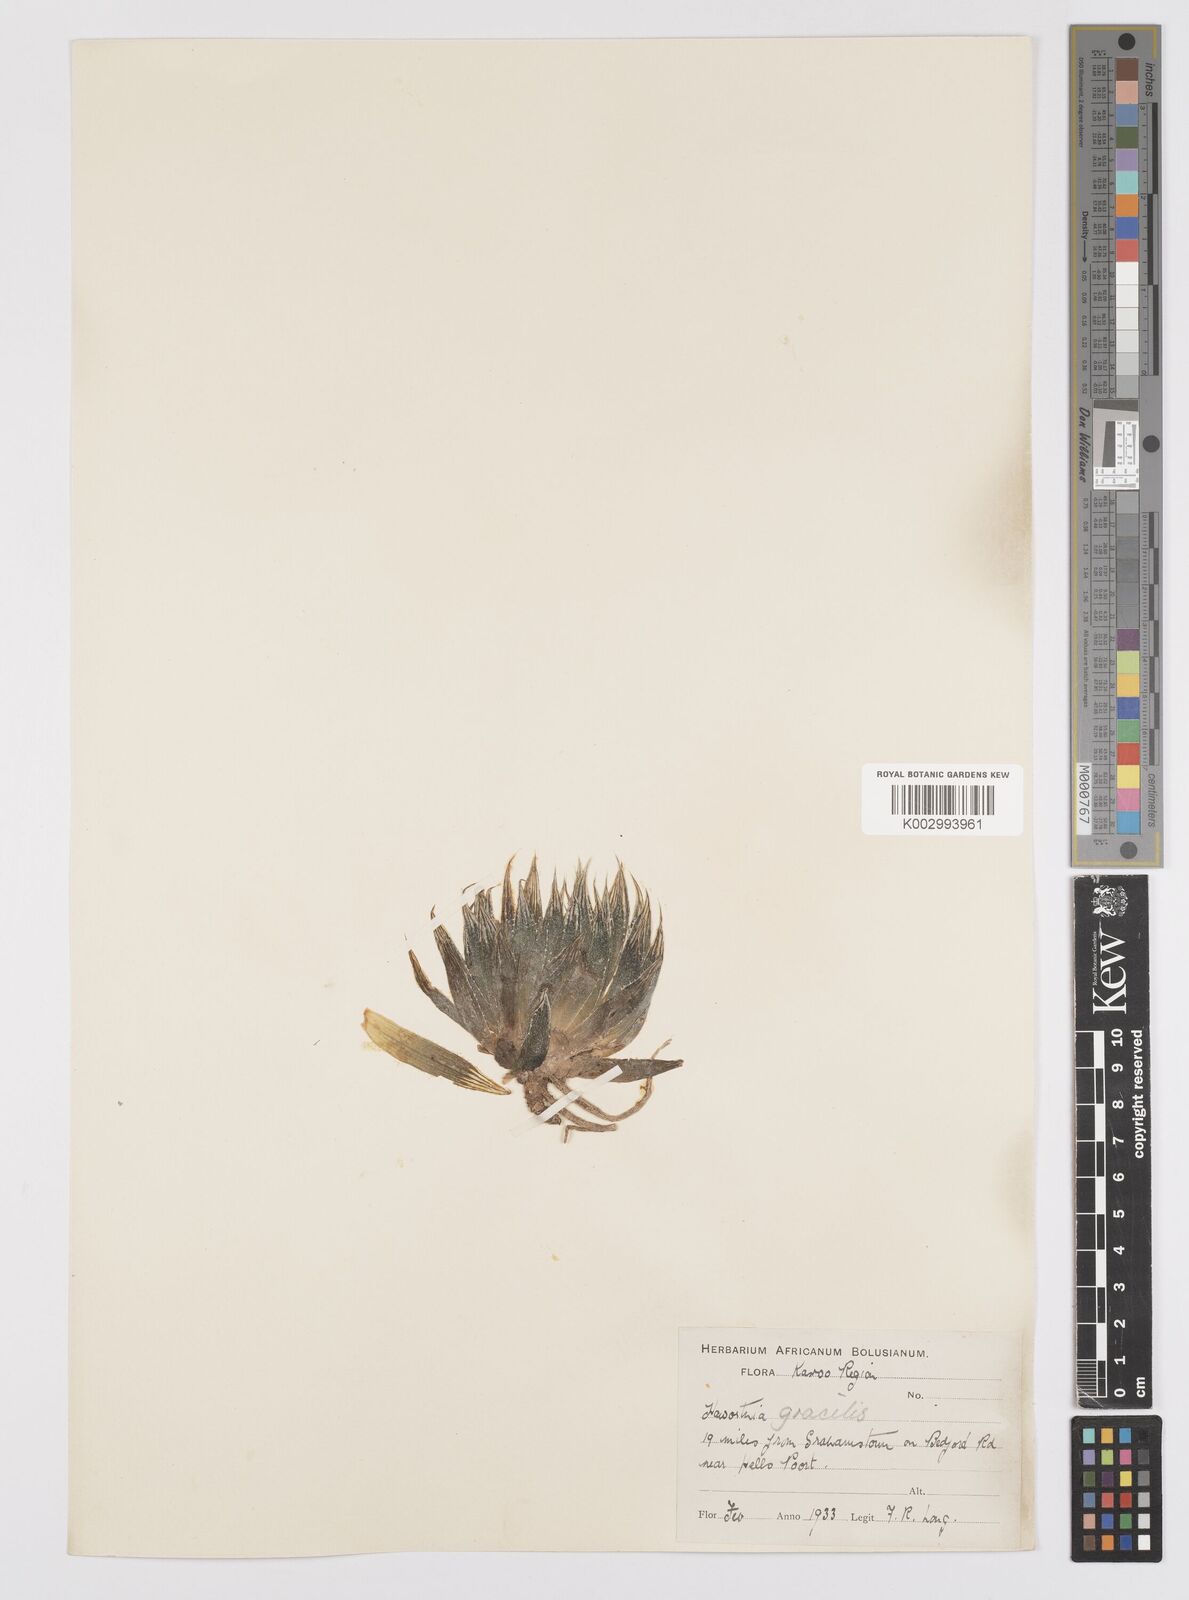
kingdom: Plantae
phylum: Tracheophyta
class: Liliopsida
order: Asparagales
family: Asphodelaceae
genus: Haworthia
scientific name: Haworthia cooperi
